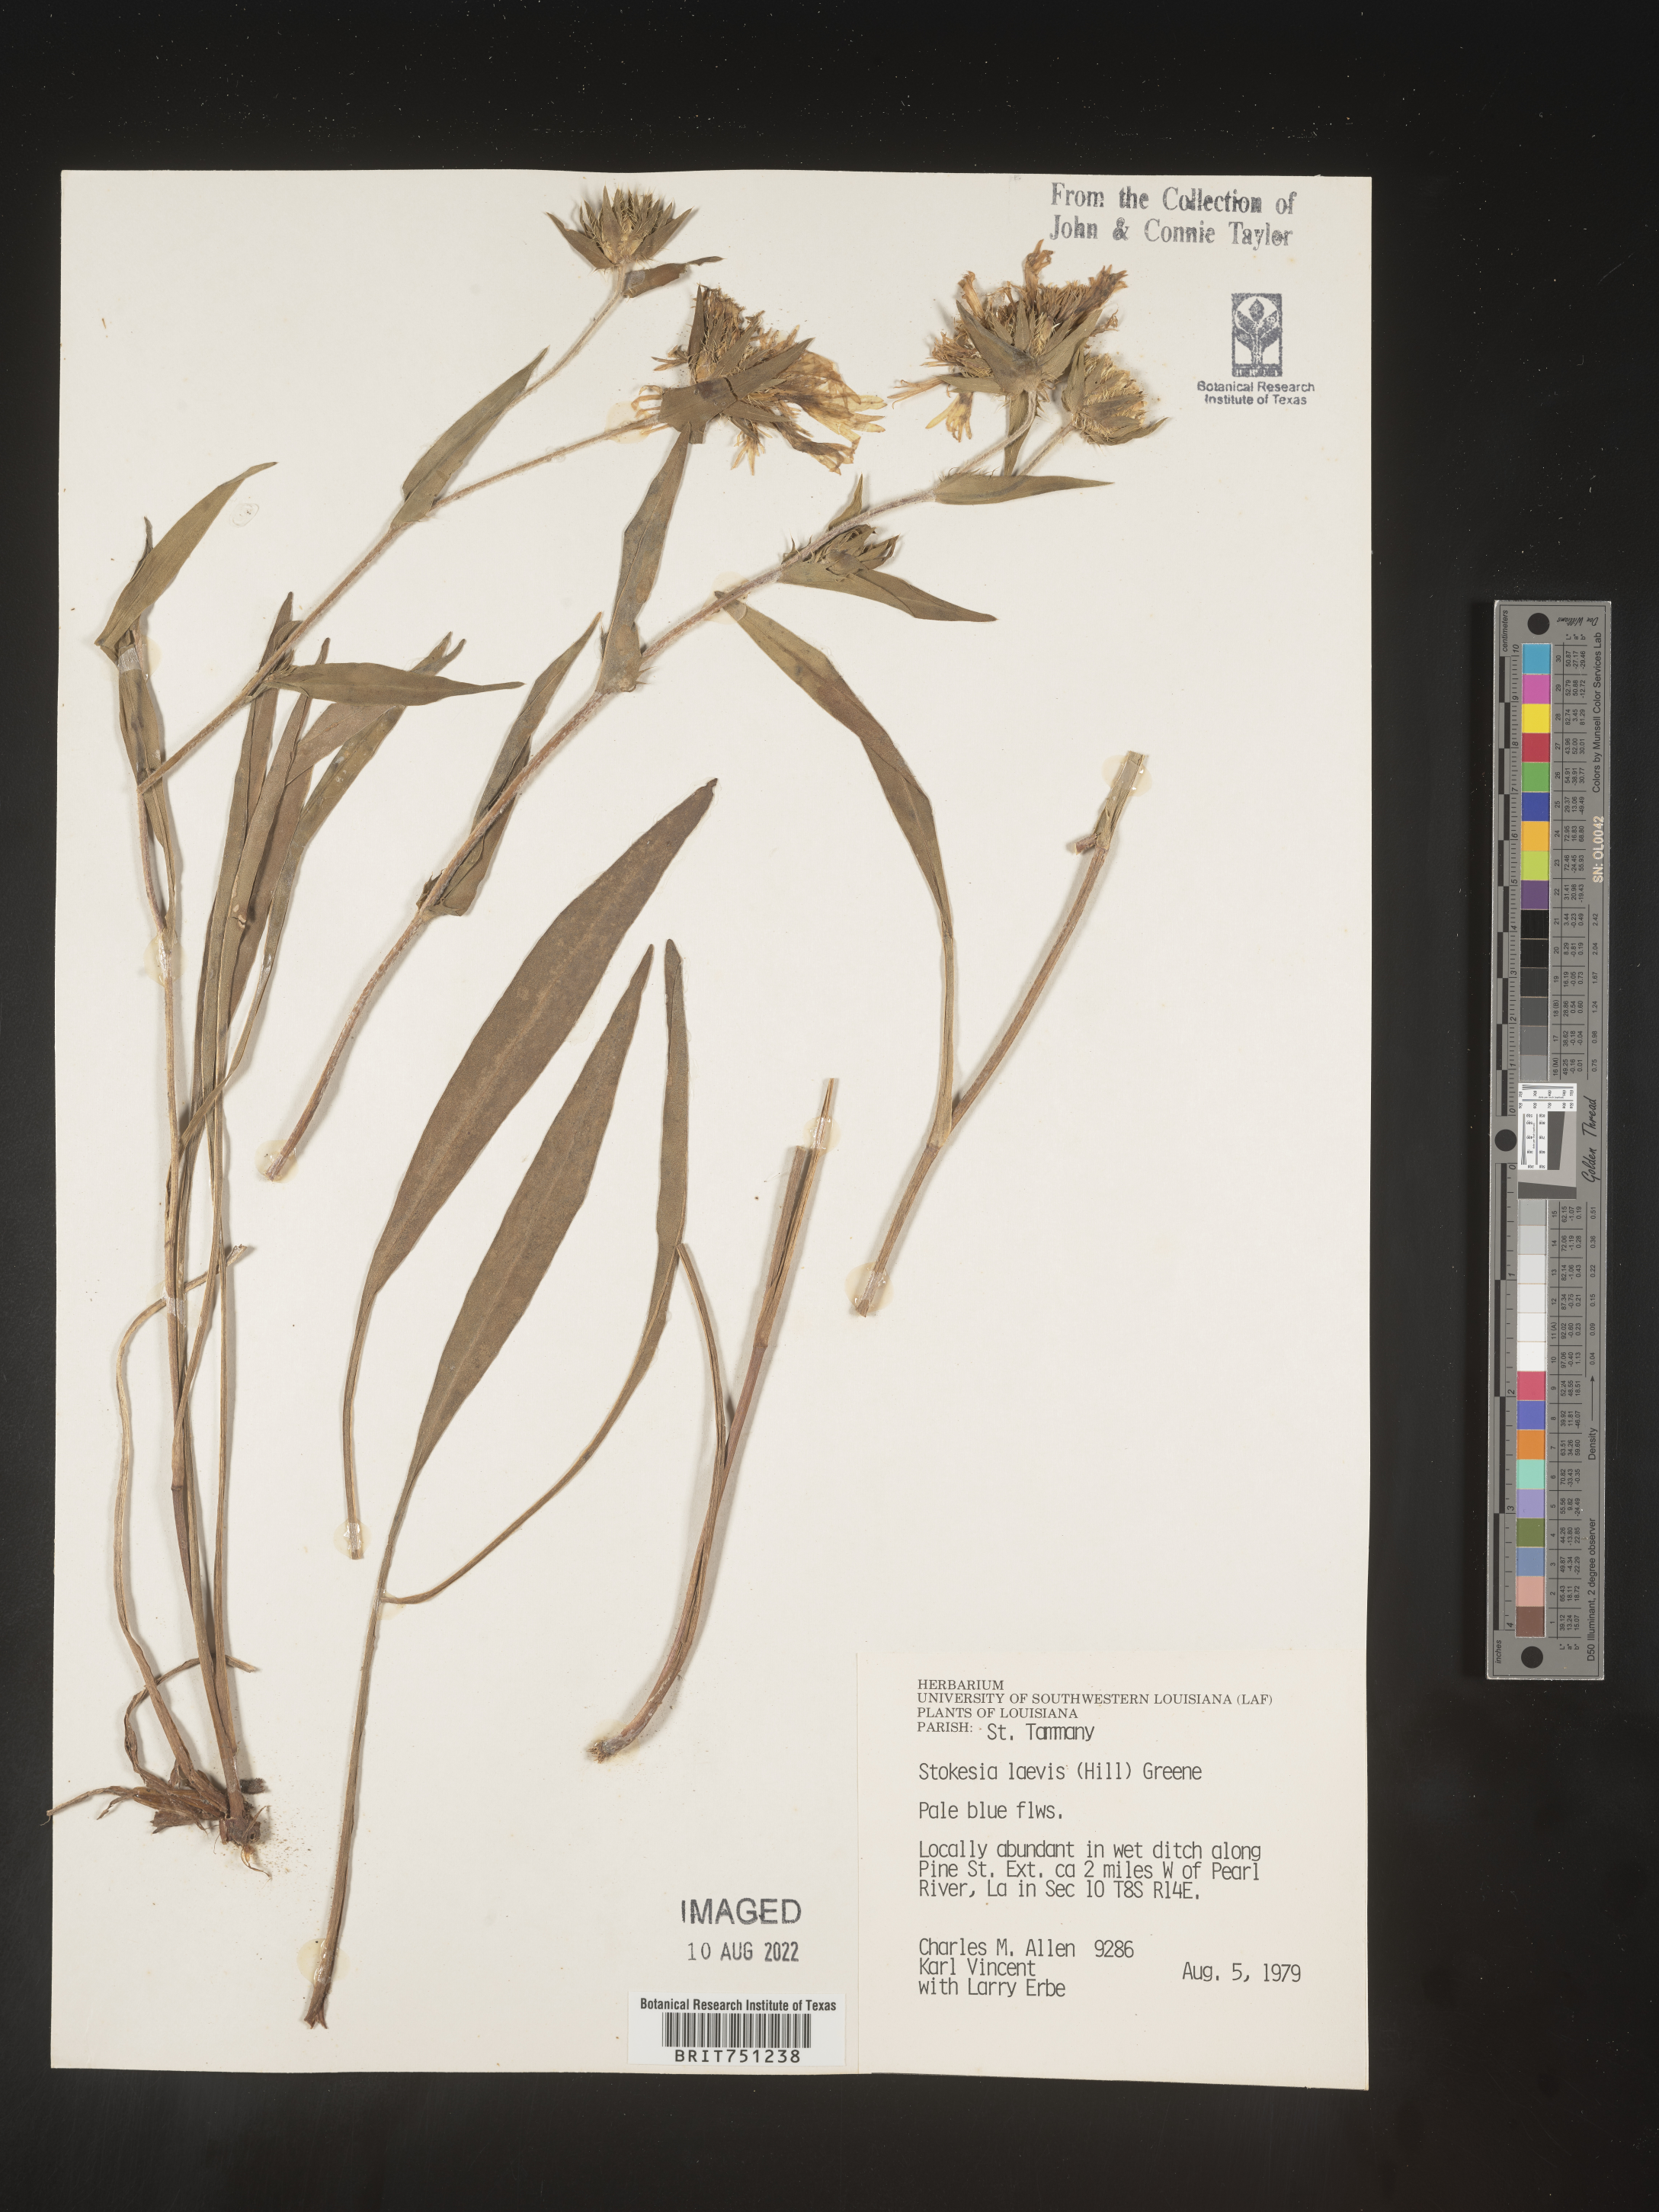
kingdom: Plantae
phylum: Tracheophyta
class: Magnoliopsida
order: Asterales
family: Asteraceae
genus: Stokesia
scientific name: Stokesia
